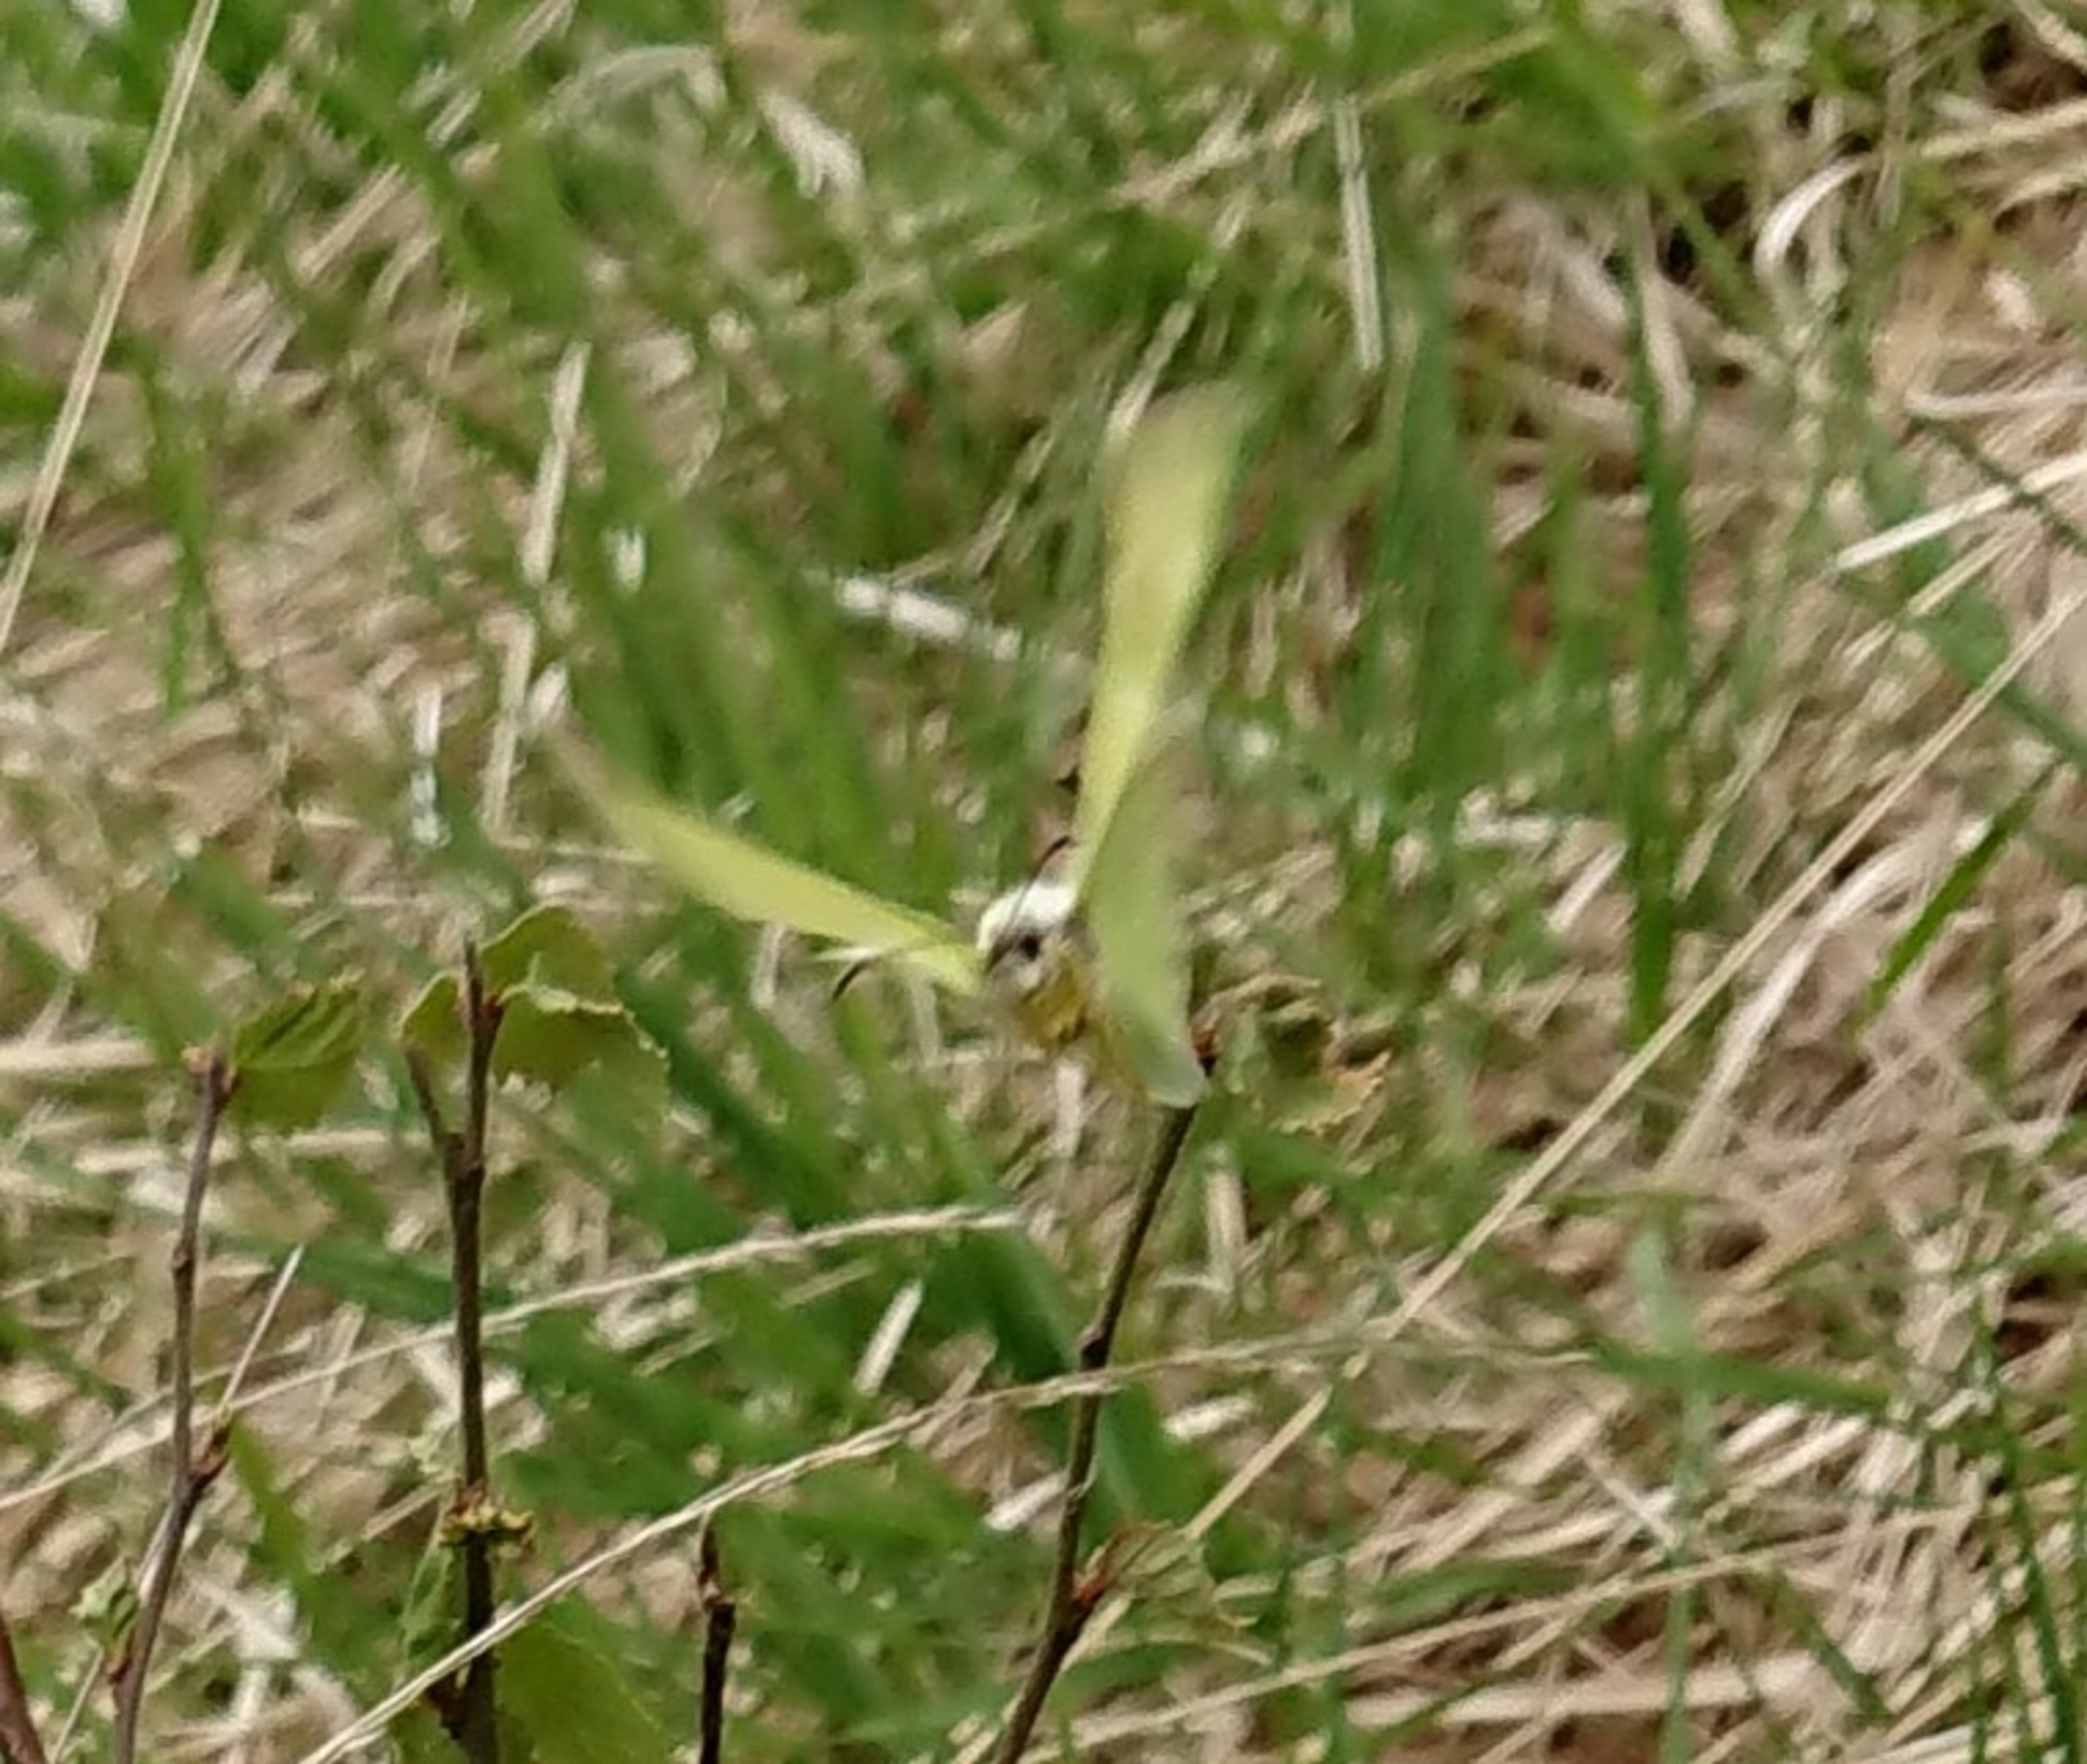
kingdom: Animalia
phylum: Arthropoda
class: Insecta
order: Lepidoptera
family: Pieridae
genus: Gonepteryx
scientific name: Gonepteryx rhamni
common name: Citronsommerfugl
